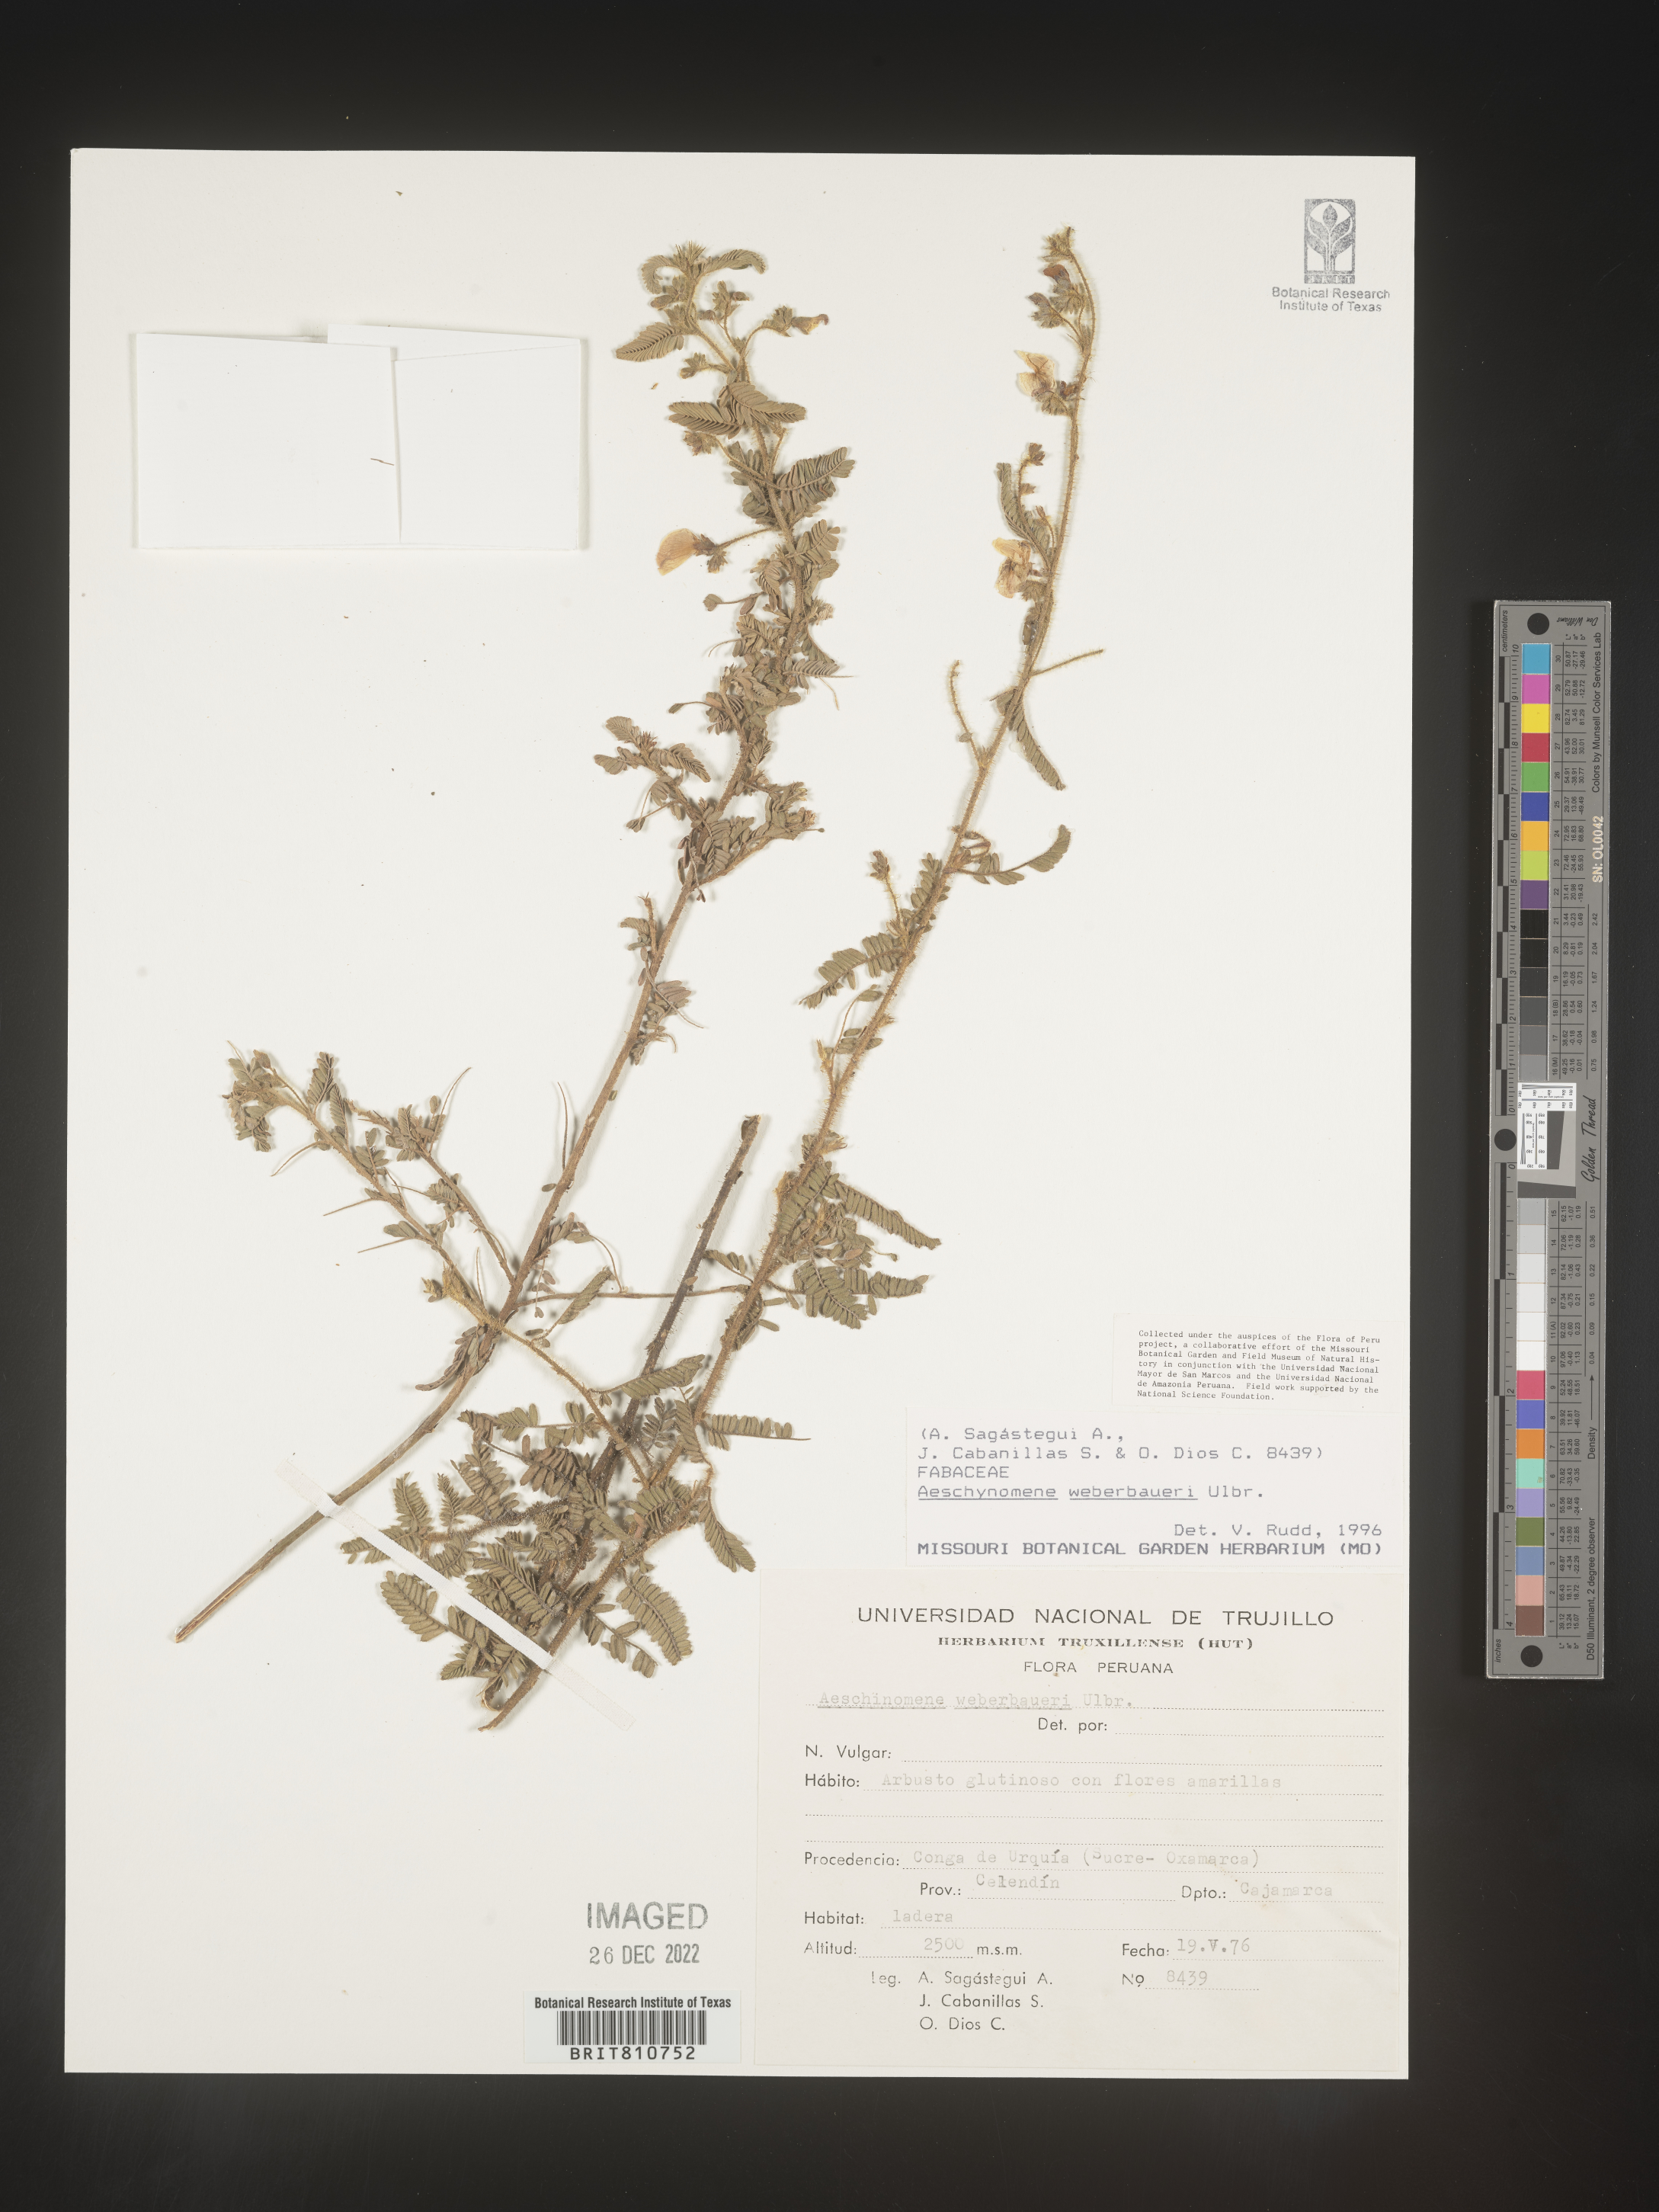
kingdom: Plantae
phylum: Tracheophyta
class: Magnoliopsida
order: Fabales
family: Fabaceae
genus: Aeschynomene
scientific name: Aeschynomene
